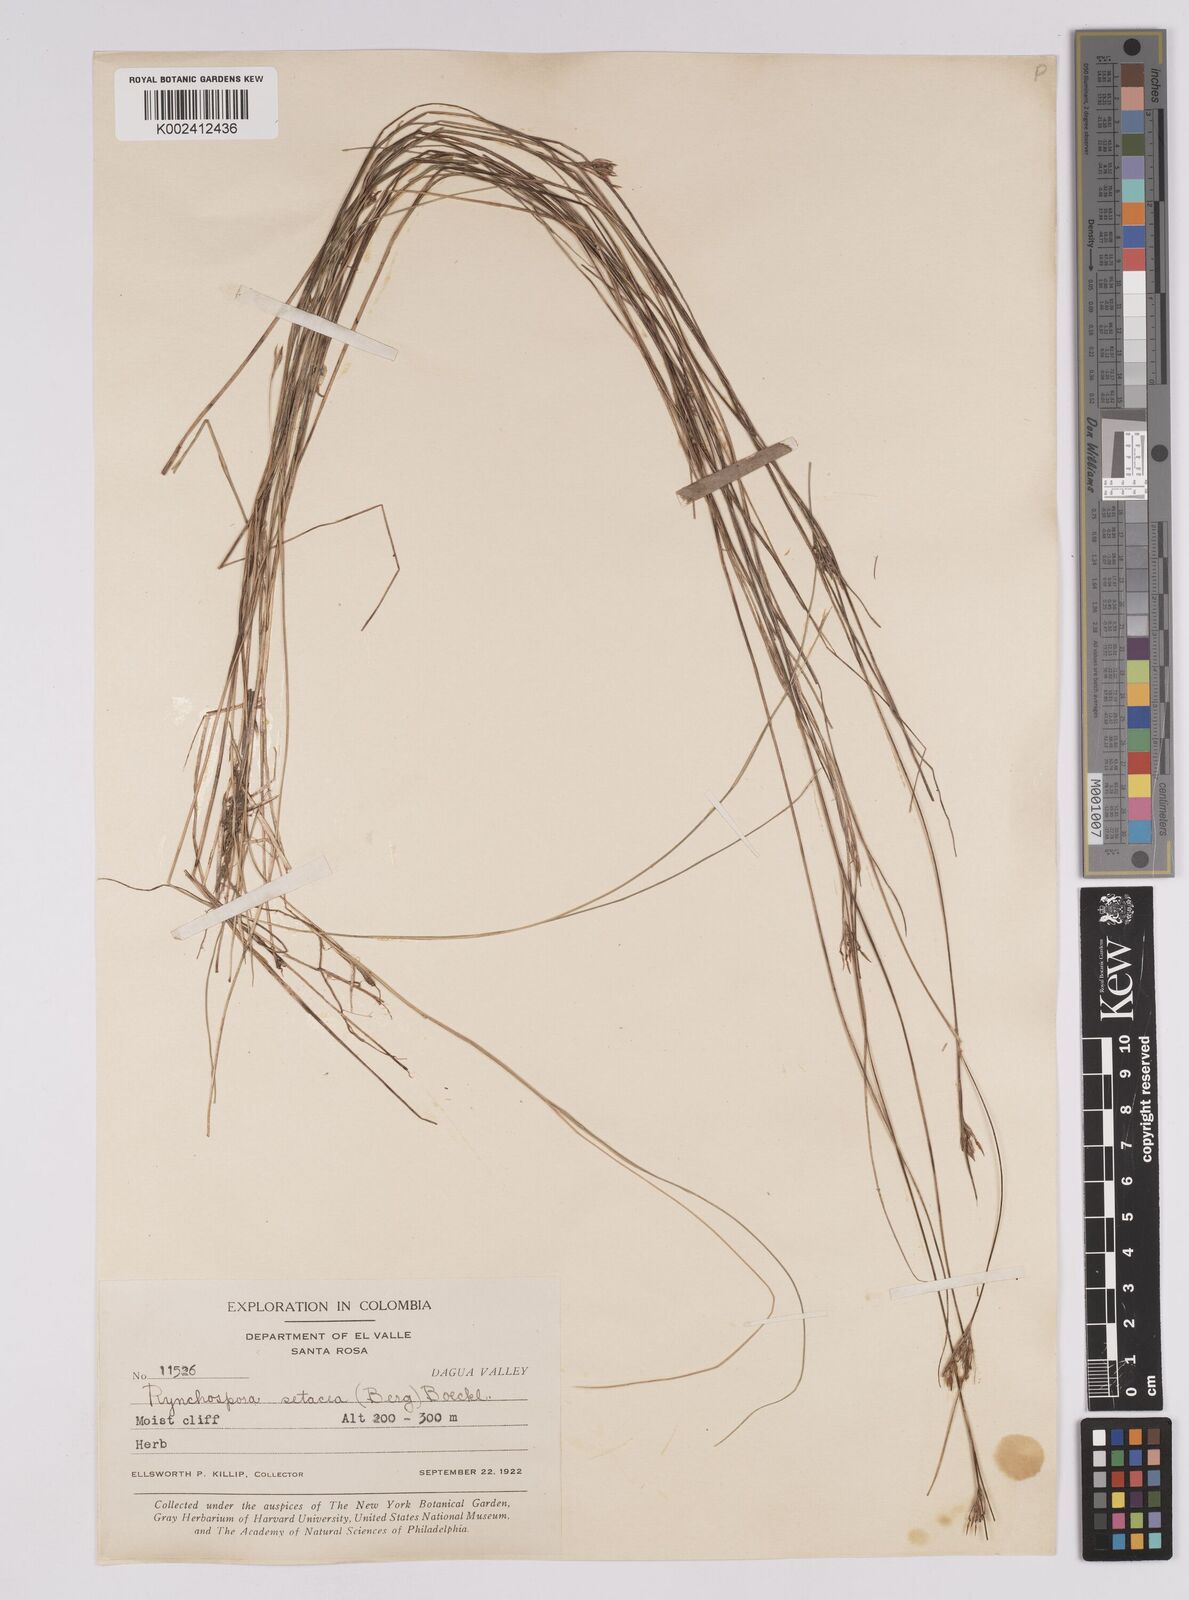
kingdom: Plantae
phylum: Tracheophyta
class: Liliopsida
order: Poales
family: Cyperaceae
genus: Rhynchospora
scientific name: Rhynchospora tenerrima
